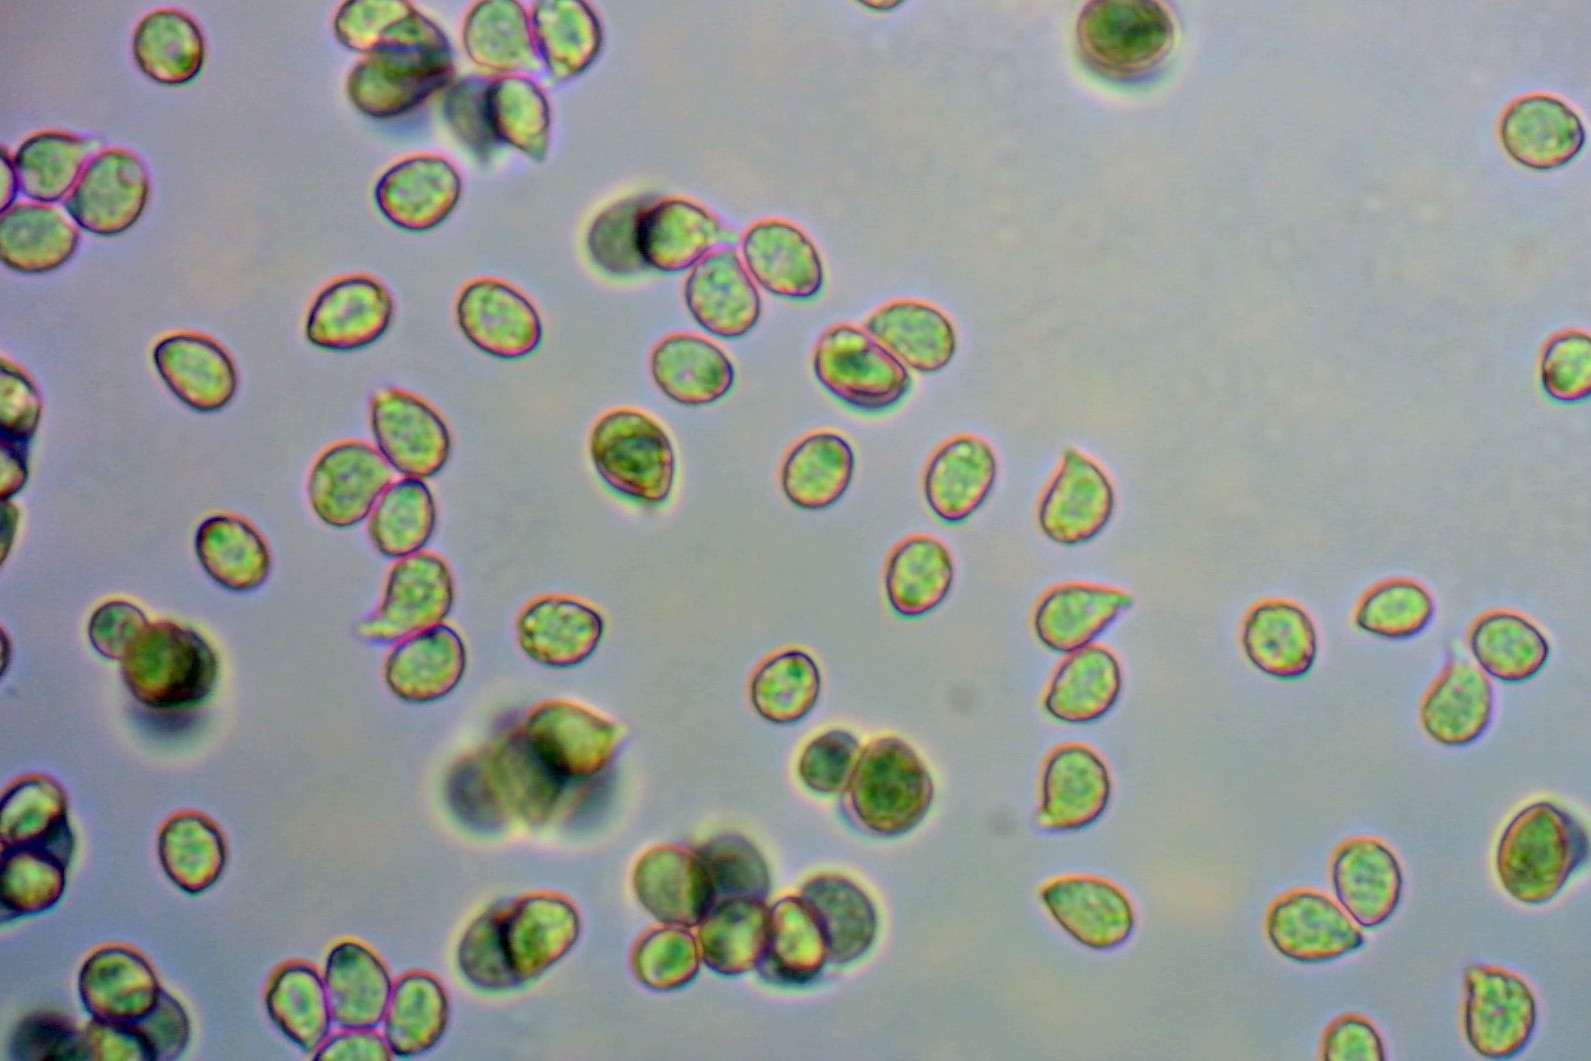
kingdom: Fungi
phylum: Basidiomycota
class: Agaricomycetes
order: Agaricales
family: Hygrophoraceae
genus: Cuphophyllus
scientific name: Cuphophyllus flavipes
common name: gulfodet vokshat
